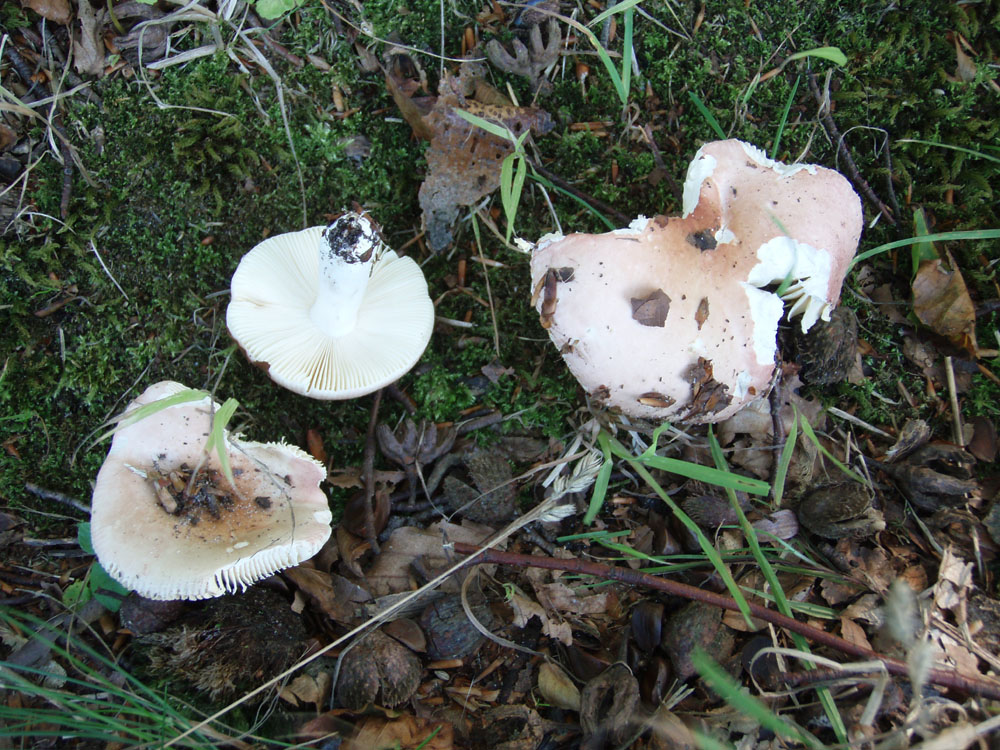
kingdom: Fungi
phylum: Basidiomycota
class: Agaricomycetes
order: Russulales
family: Russulaceae
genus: Russula
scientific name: Russula veternosa
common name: blødkødet skørhat
